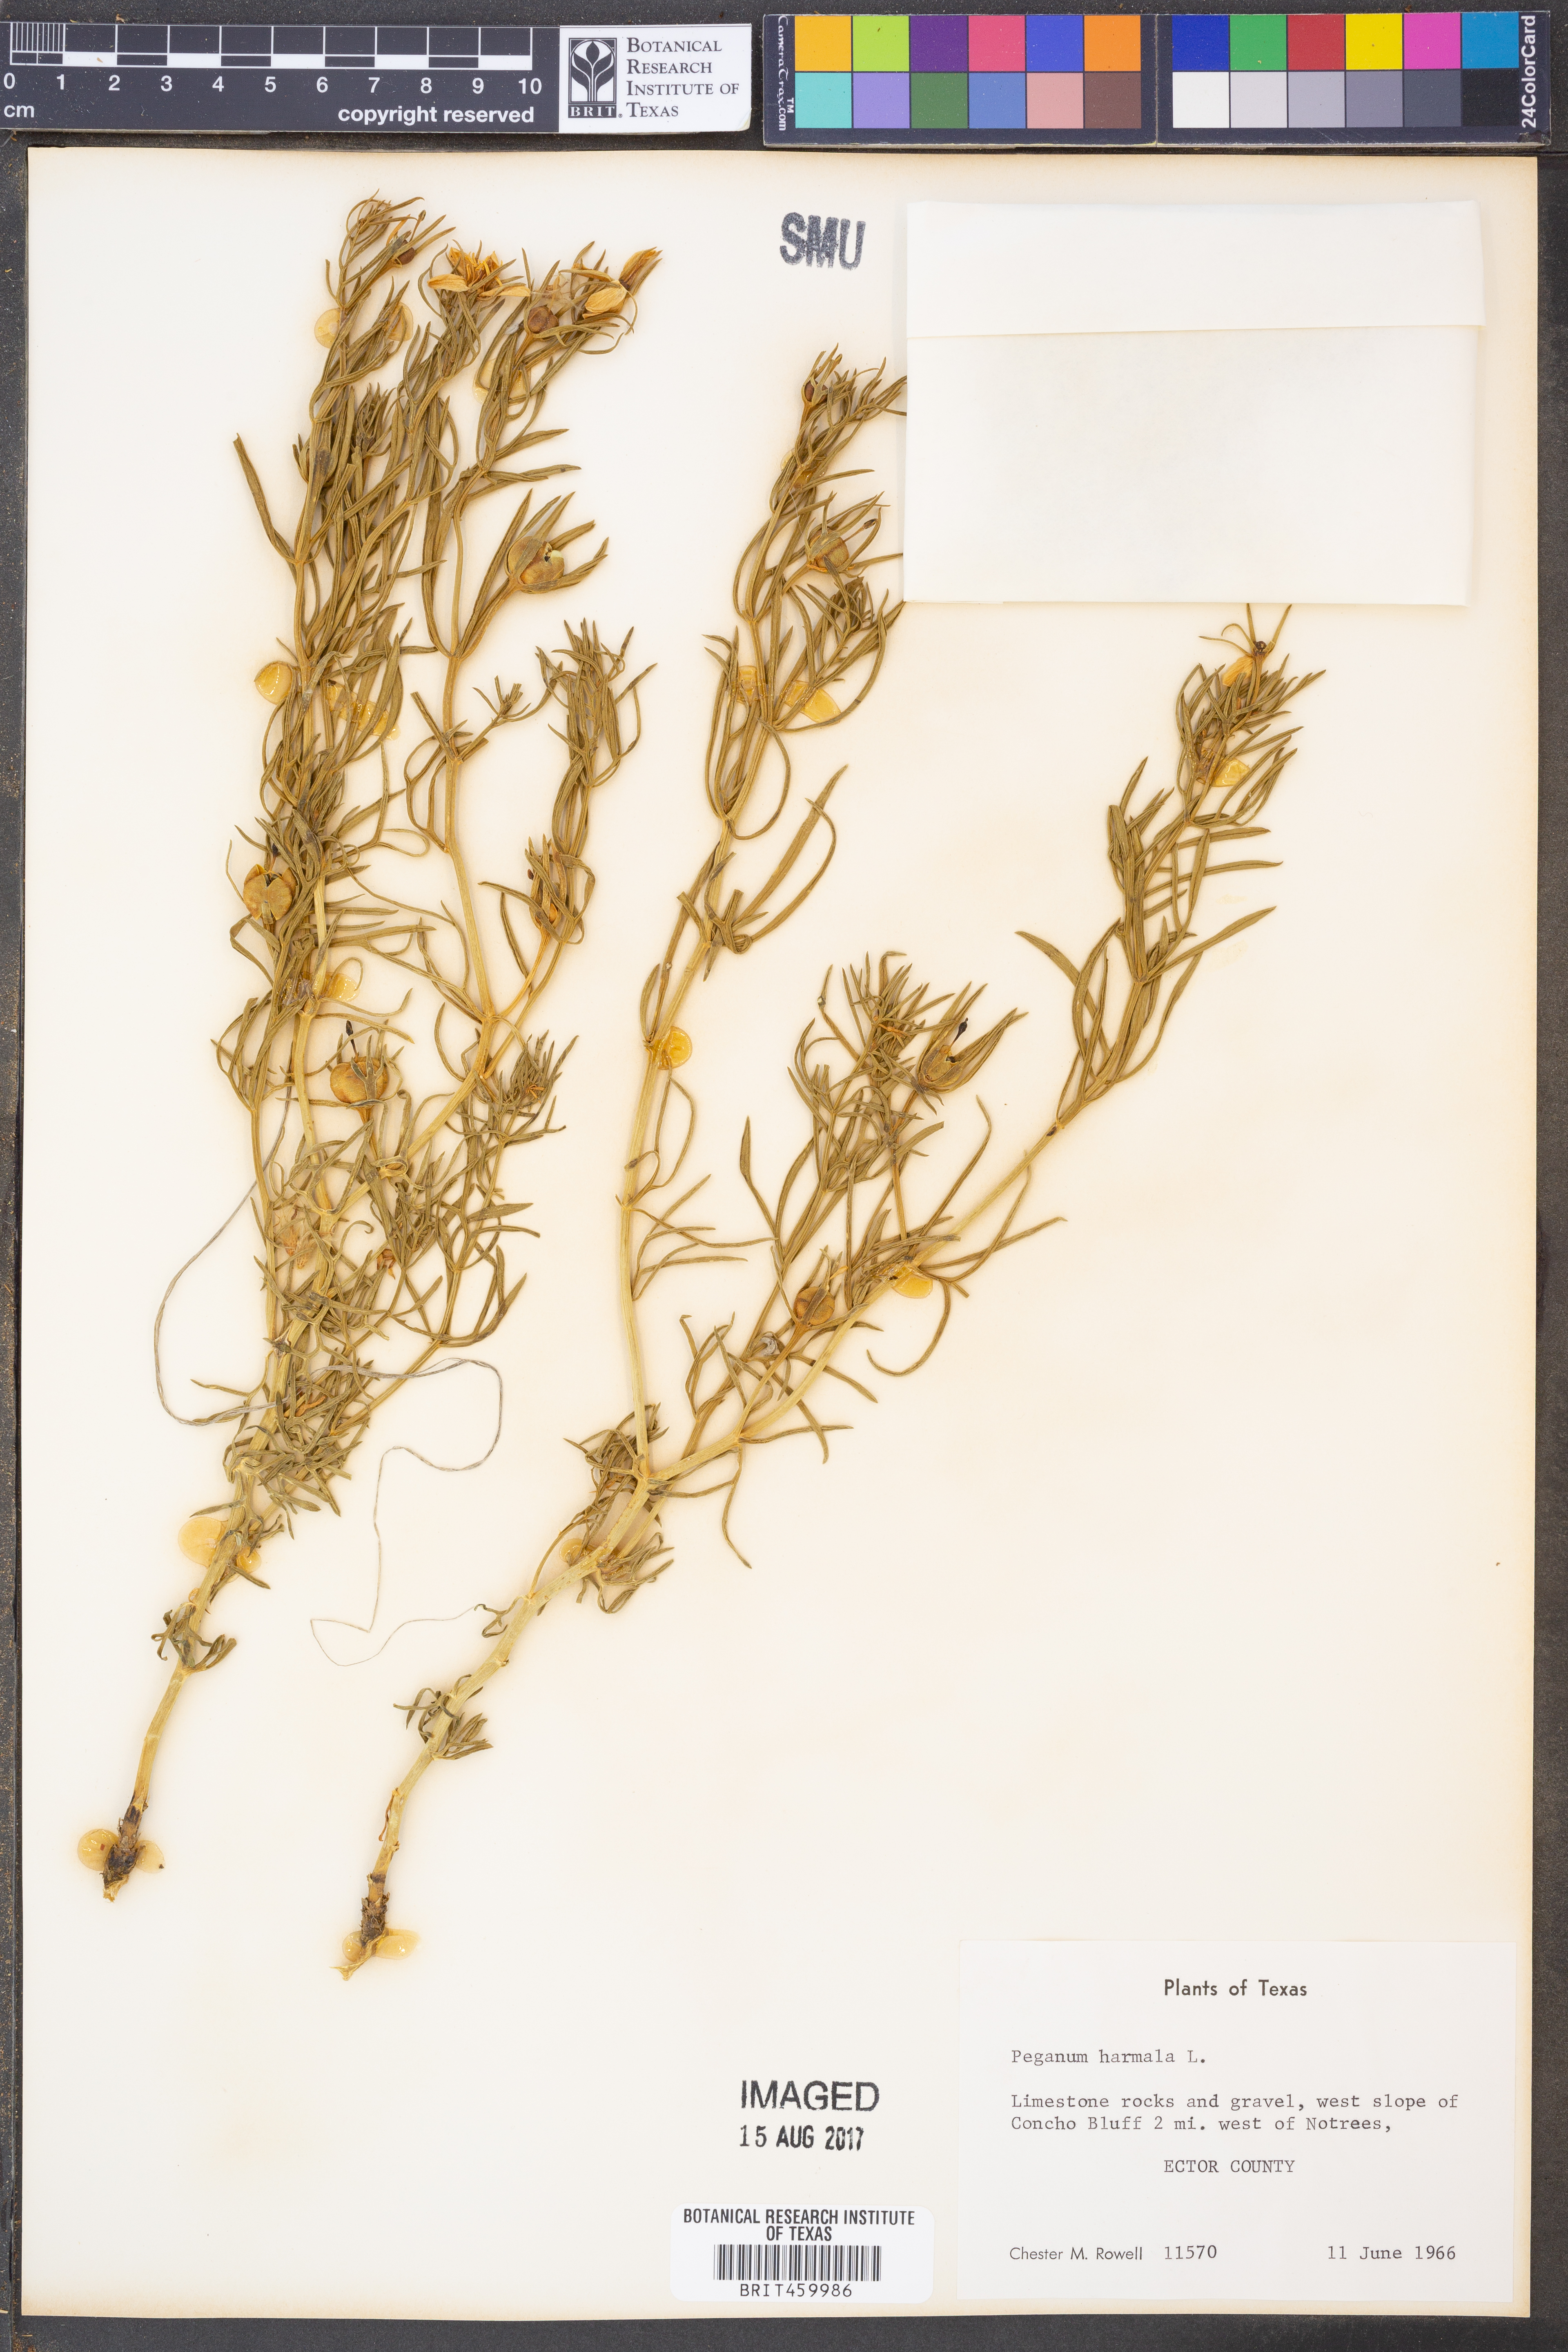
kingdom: Plantae
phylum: Tracheophyta
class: Magnoliopsida
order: Sapindales
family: Tetradiclidaceae
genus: Peganum
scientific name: Peganum harmala
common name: Harmal peganum
